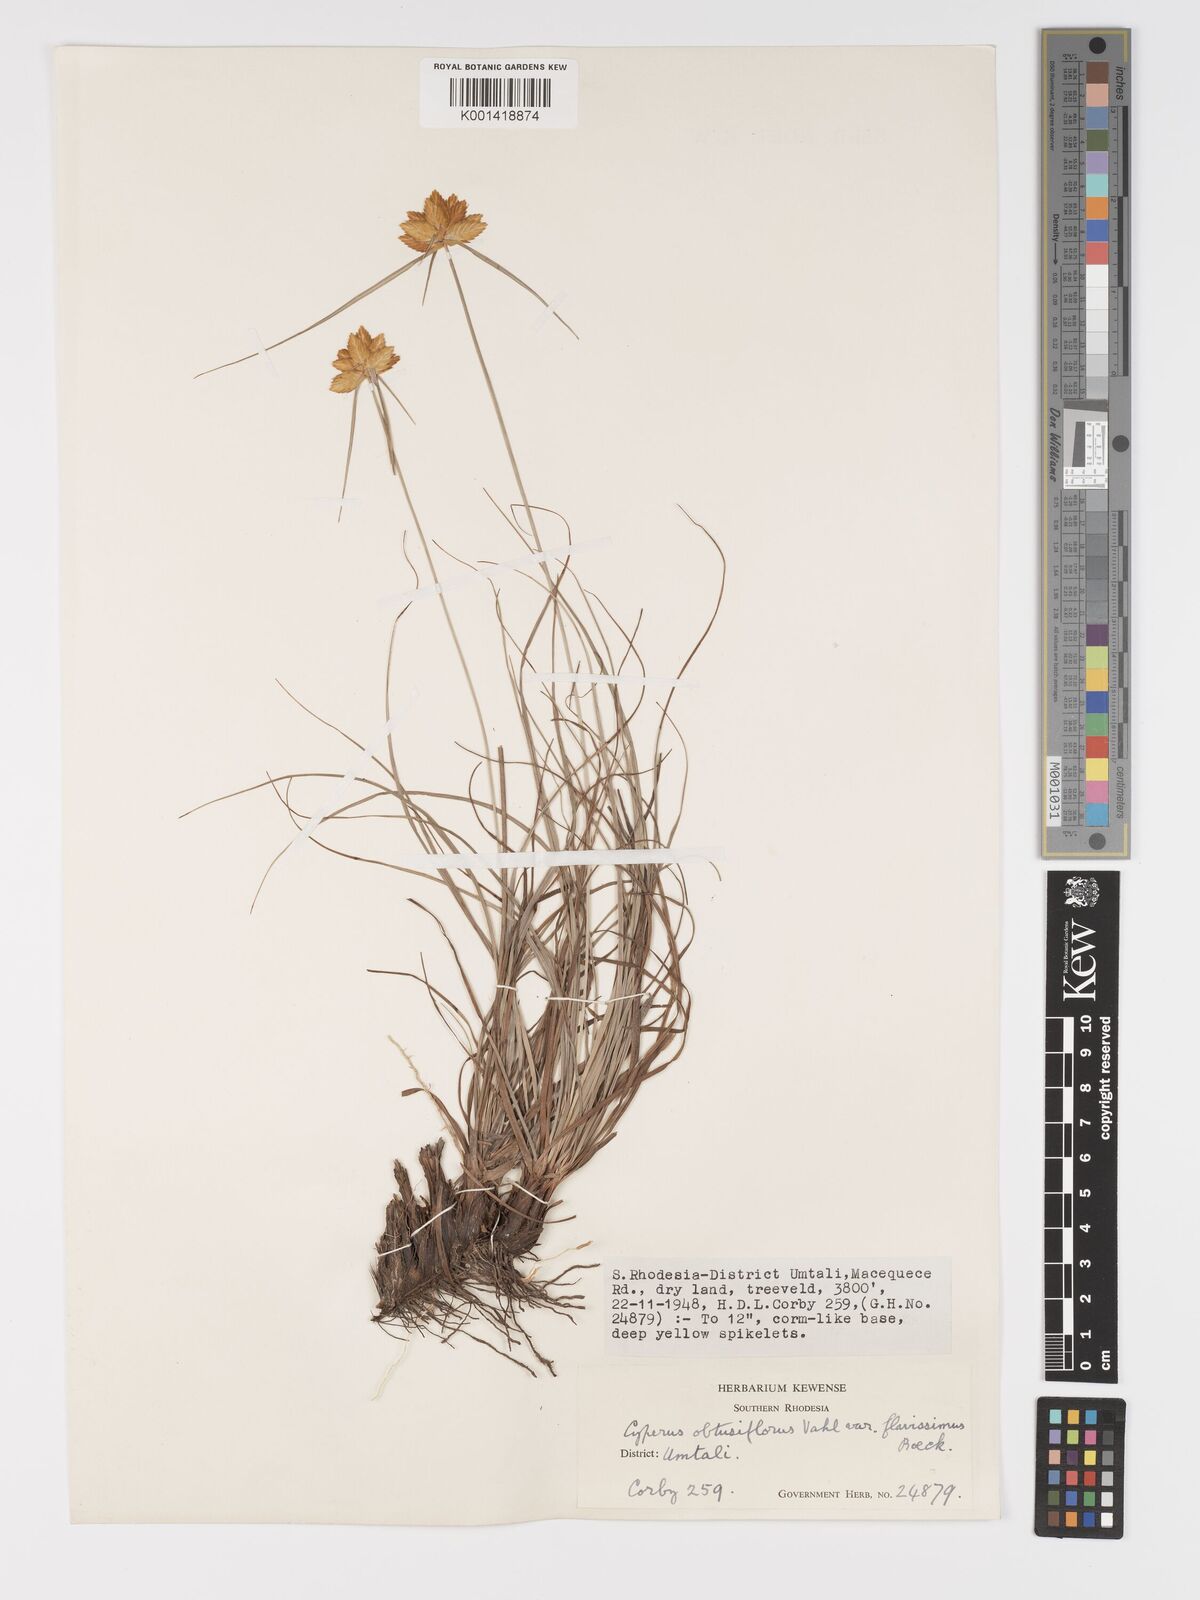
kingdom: Plantae
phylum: Tracheophyta
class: Liliopsida
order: Poales
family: Cyperaceae
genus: Cyperus
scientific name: Cyperus sphaerocephalus
